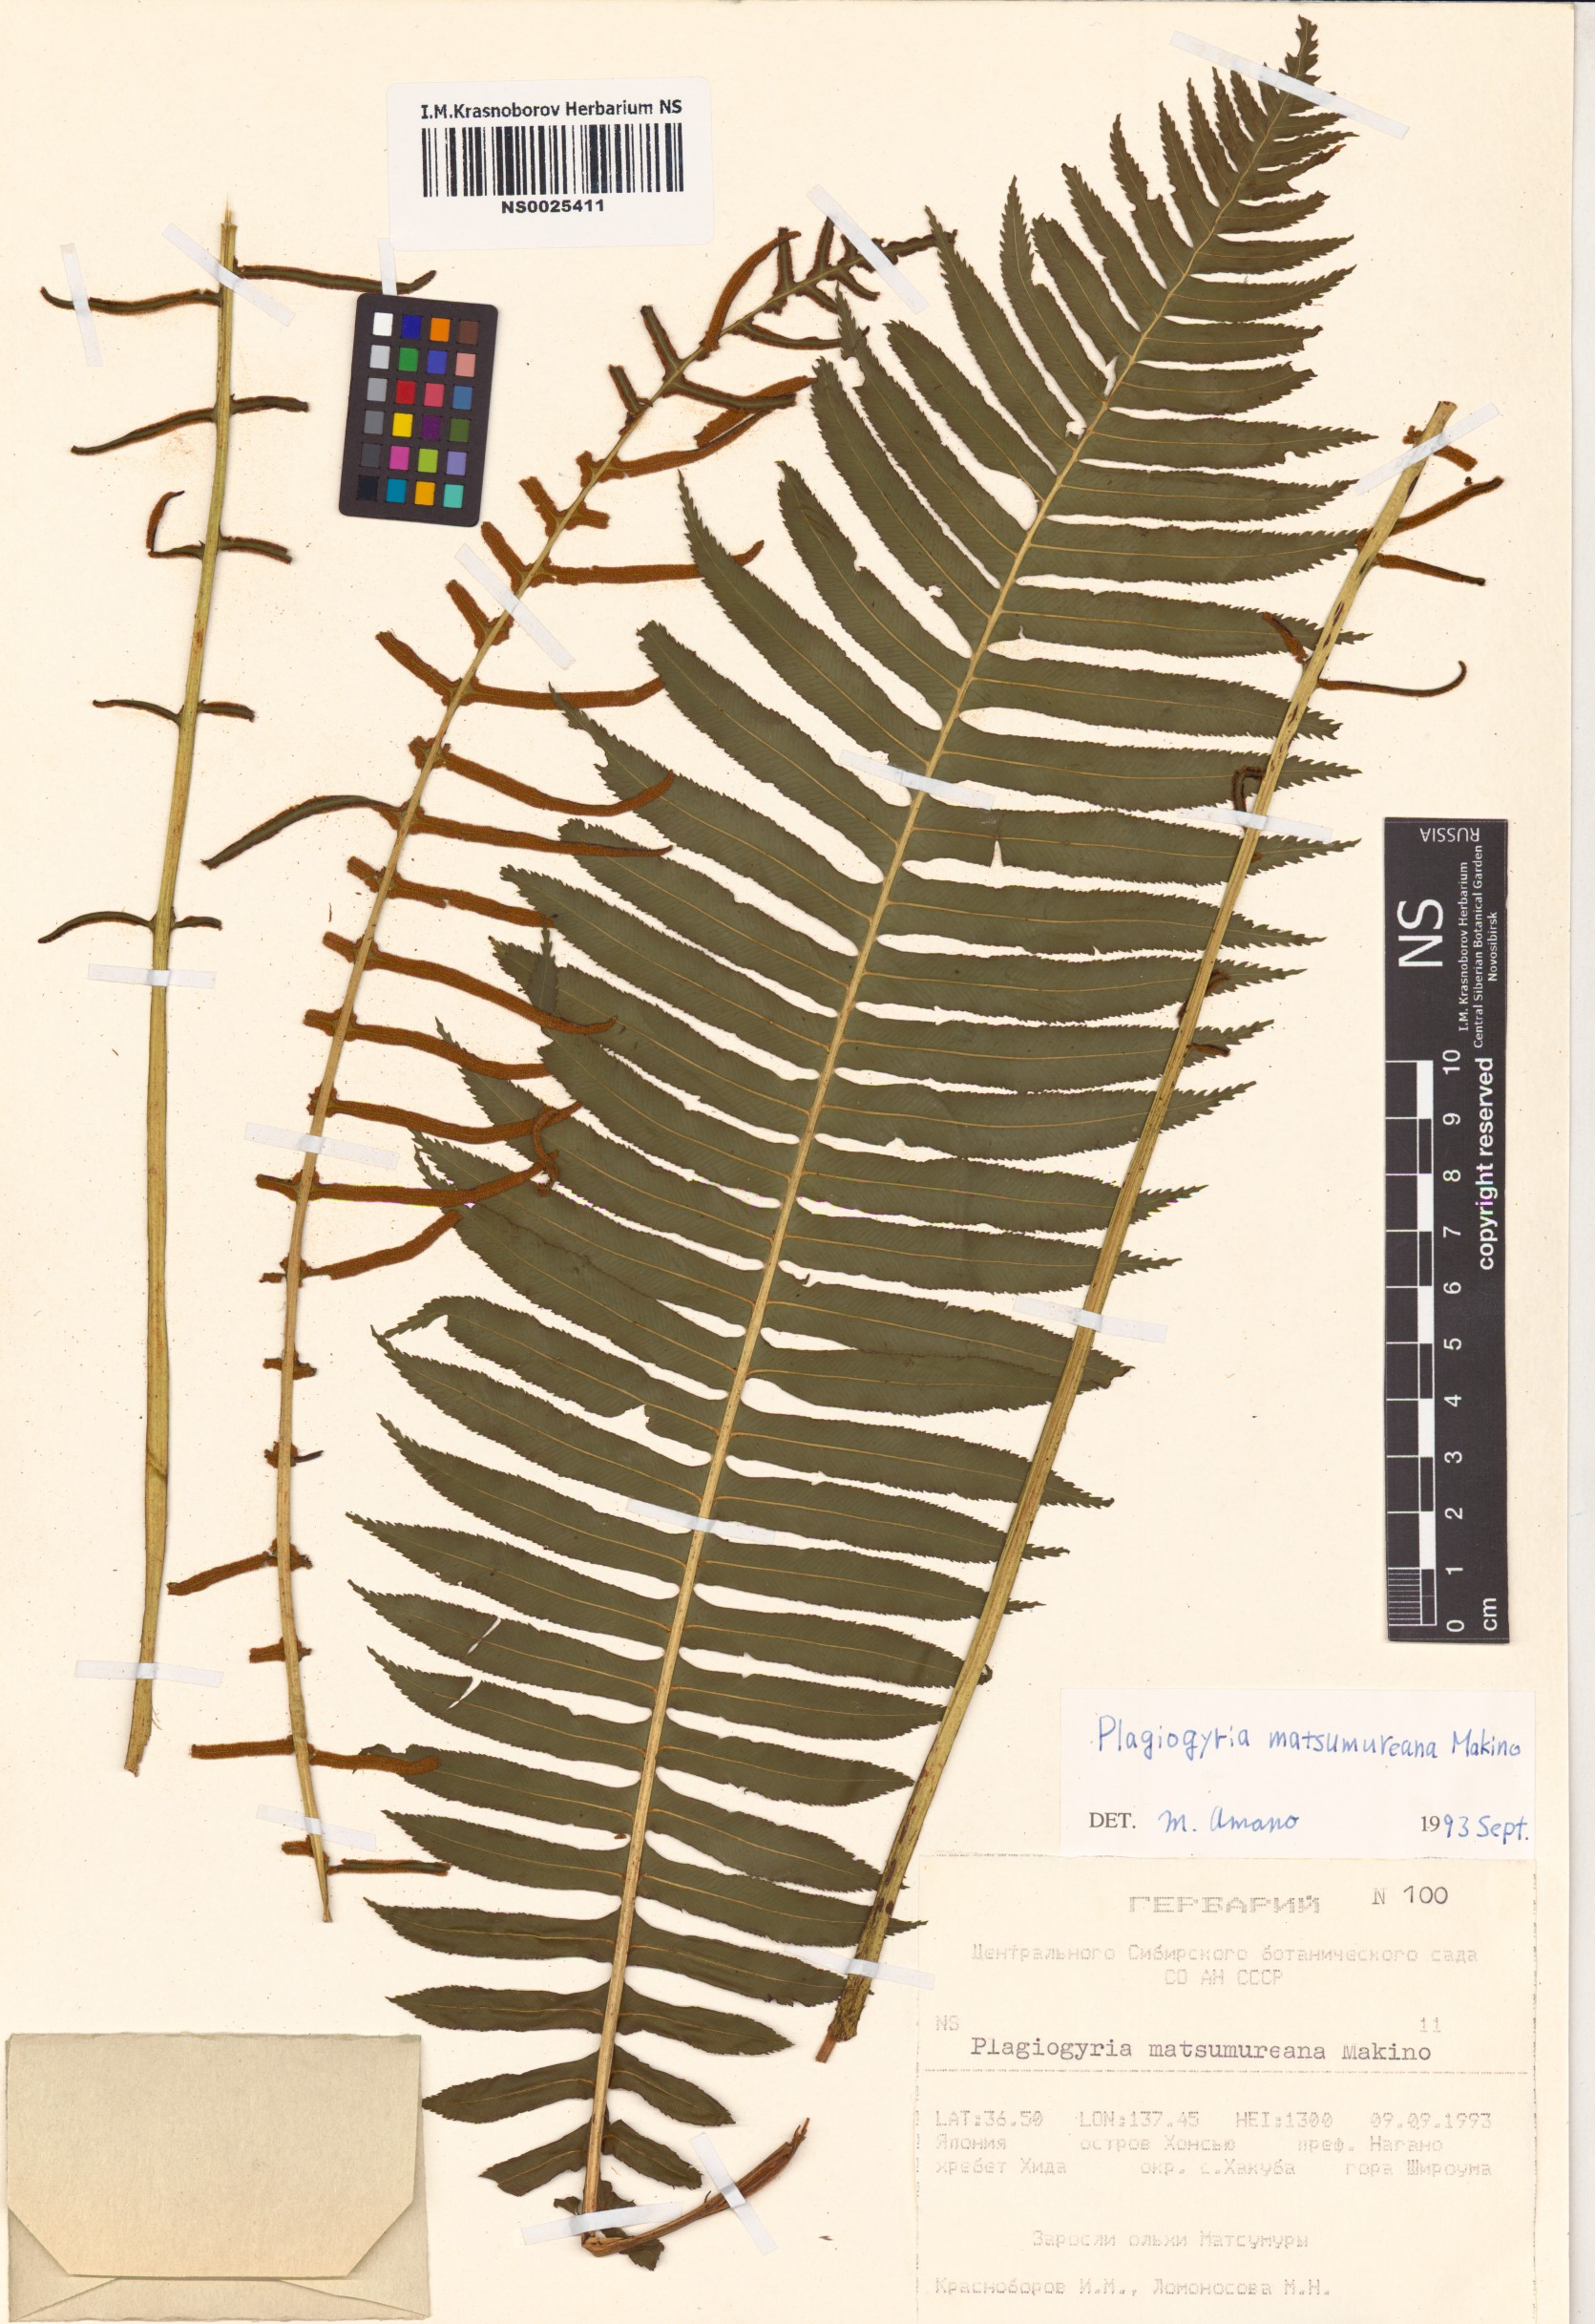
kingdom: Plantae
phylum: Tracheophyta
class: Polypodiopsida
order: Cyatheales
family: Plagiogyriaceae
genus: Plagiogyria
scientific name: Plagiogyria matsumureana
